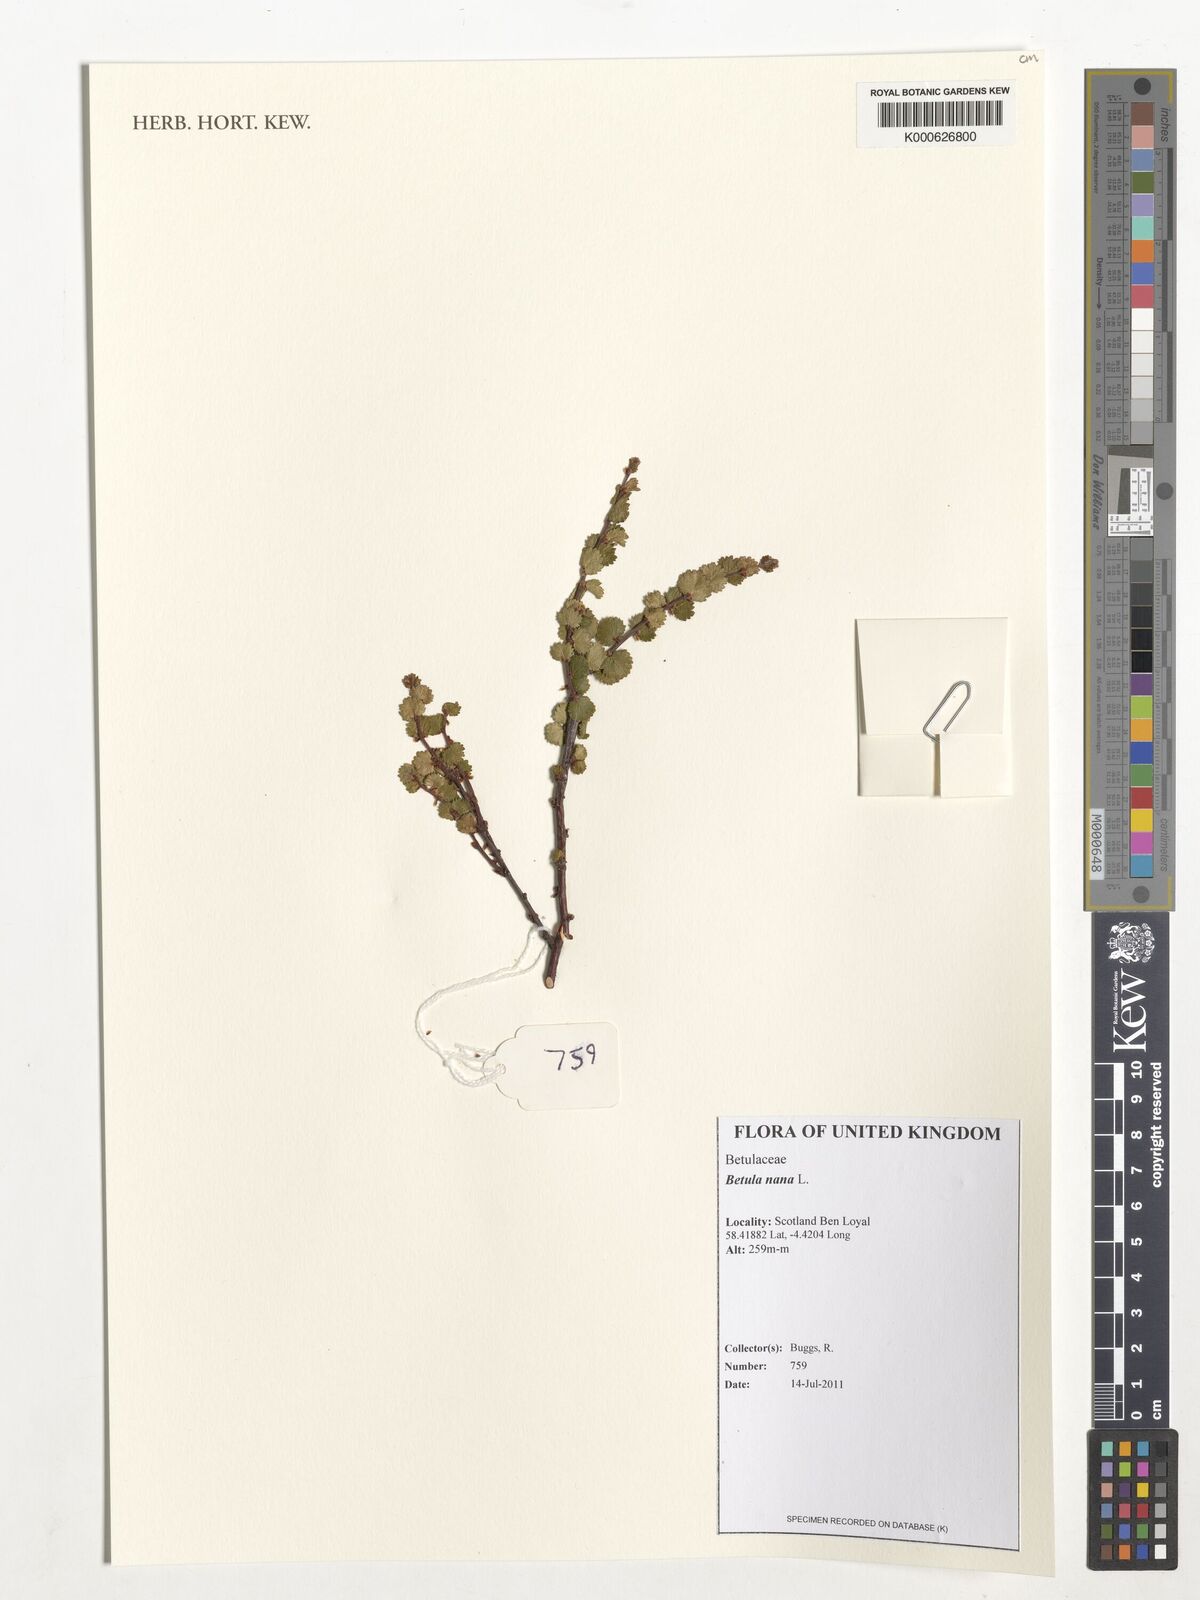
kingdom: Plantae
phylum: Tracheophyta
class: Magnoliopsida
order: Fagales
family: Betulaceae
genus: Betula
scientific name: Betula nana
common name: Arctic dwarf birch
